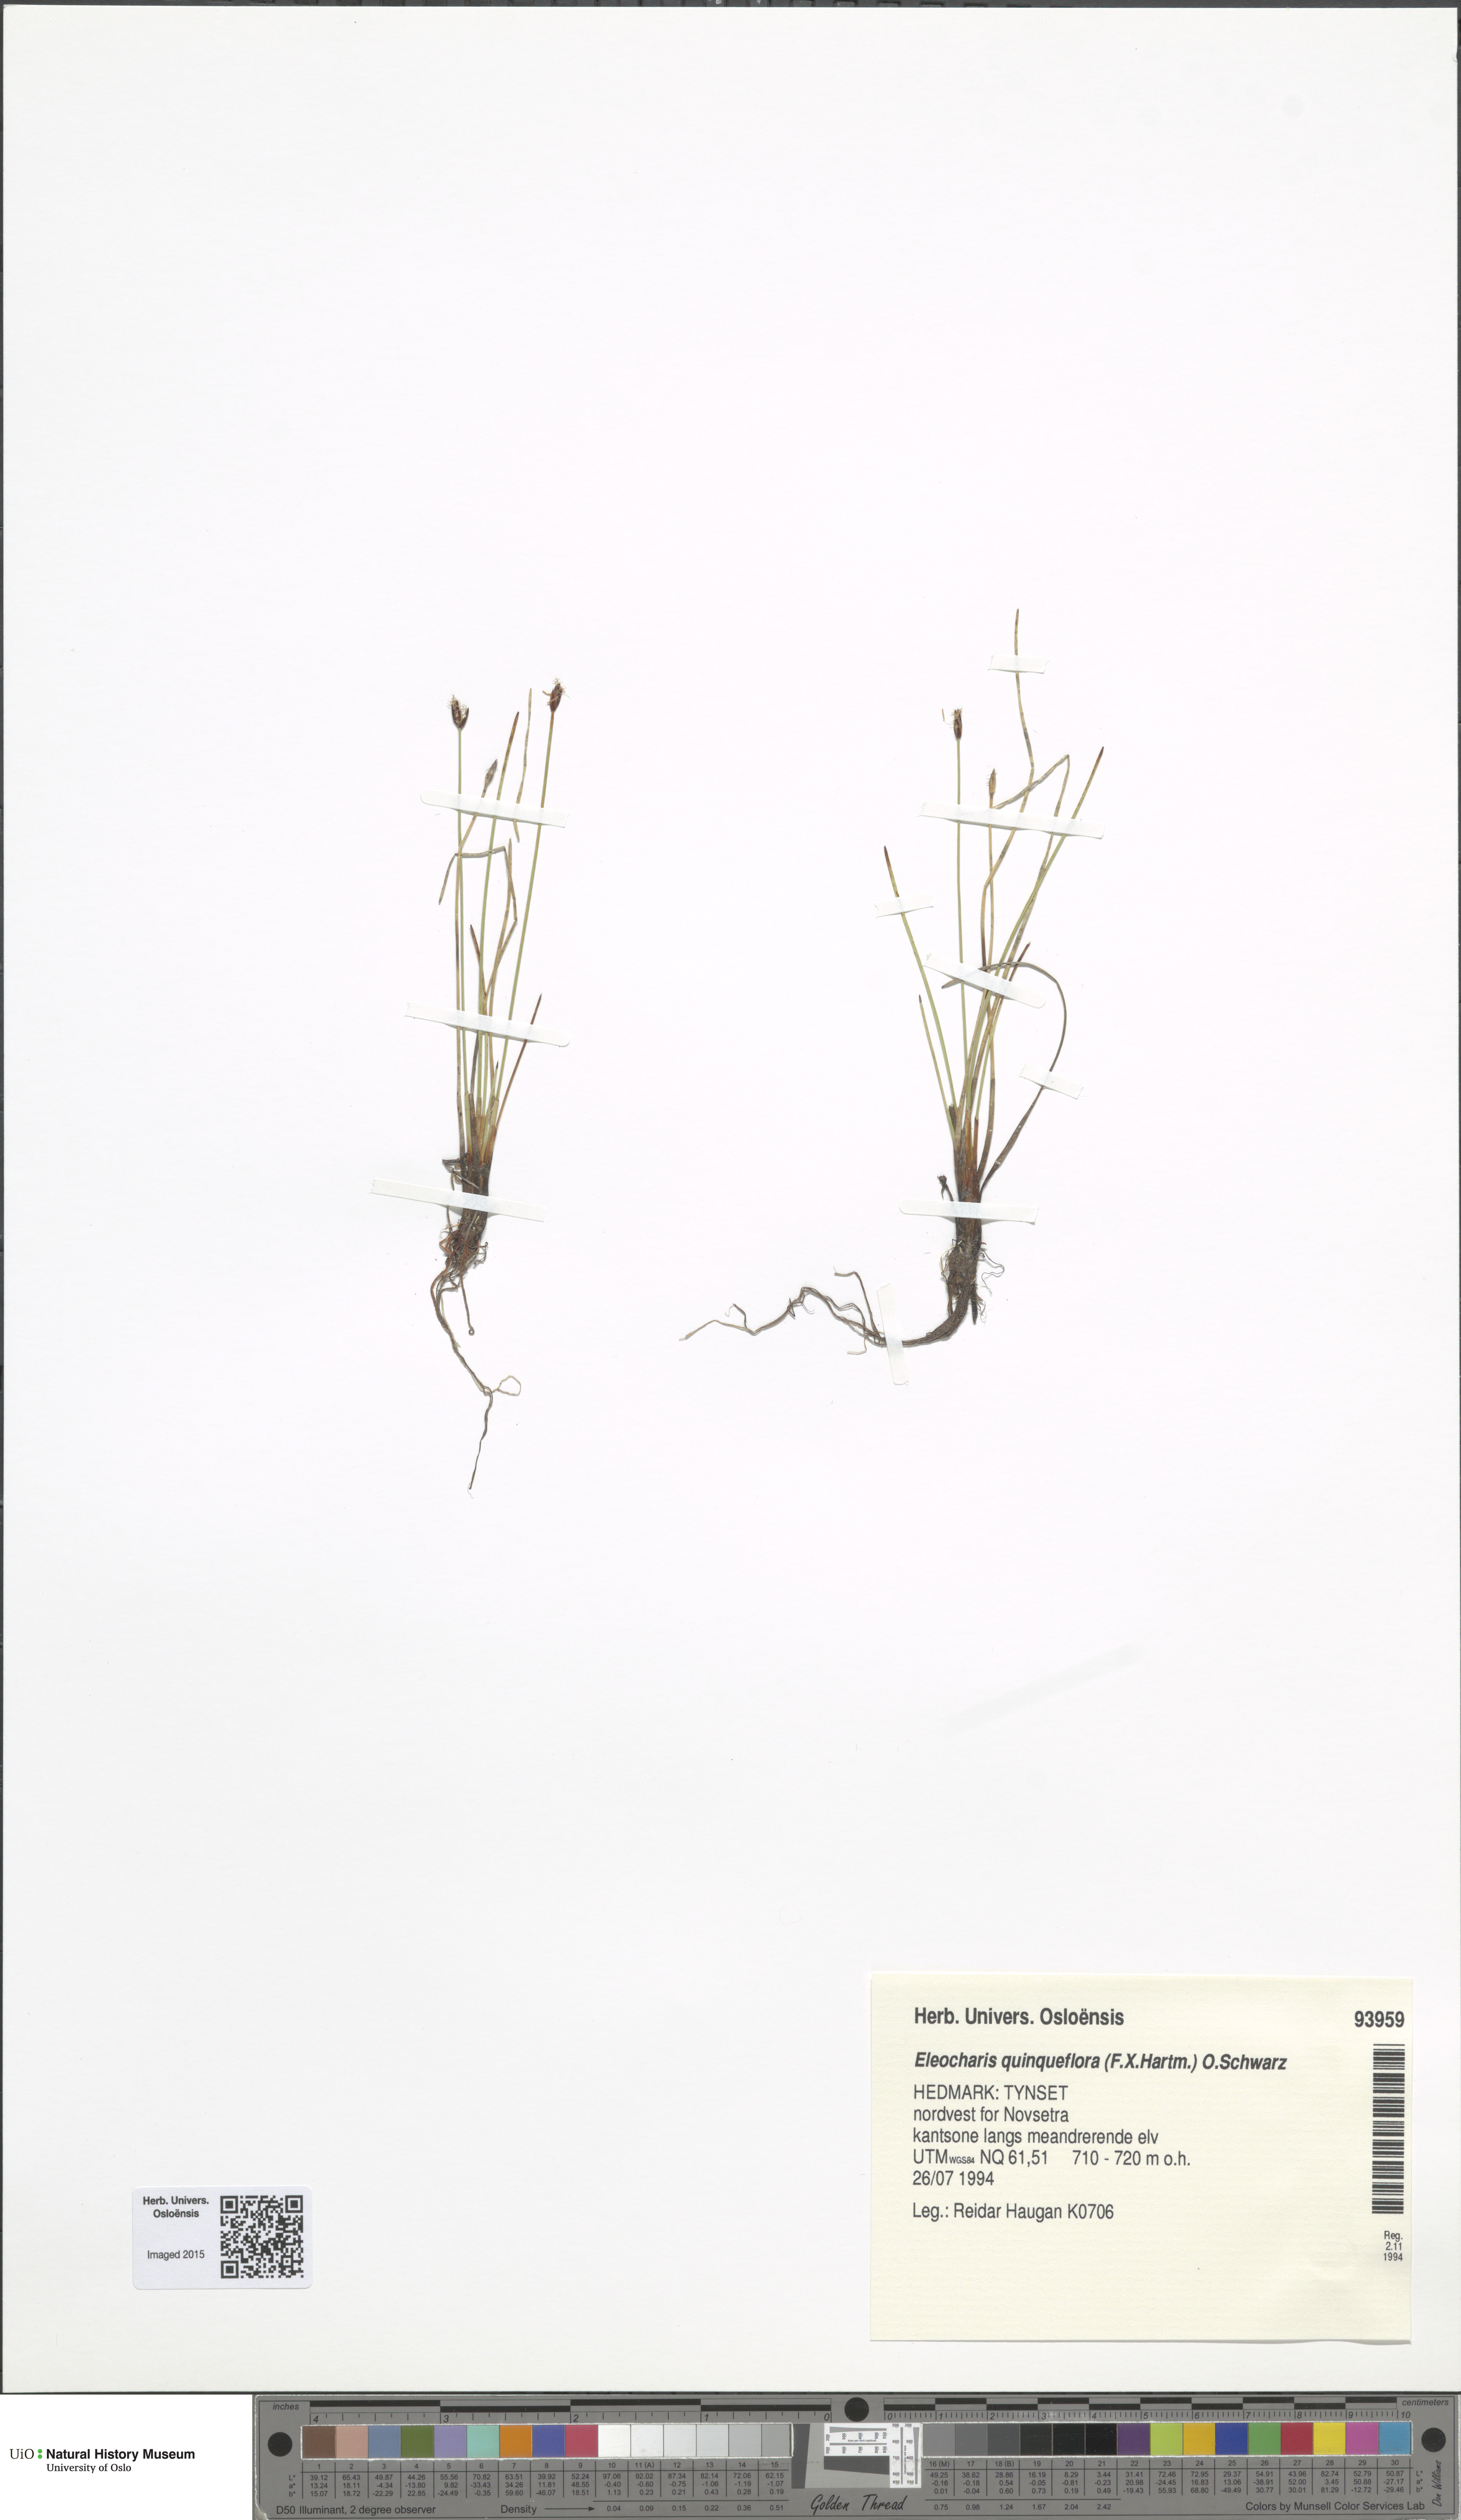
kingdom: Plantae
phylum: Tracheophyta
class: Liliopsida
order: Poales
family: Cyperaceae
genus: Eleocharis
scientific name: Eleocharis quinqueflora
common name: Few-flowered spike-rush
